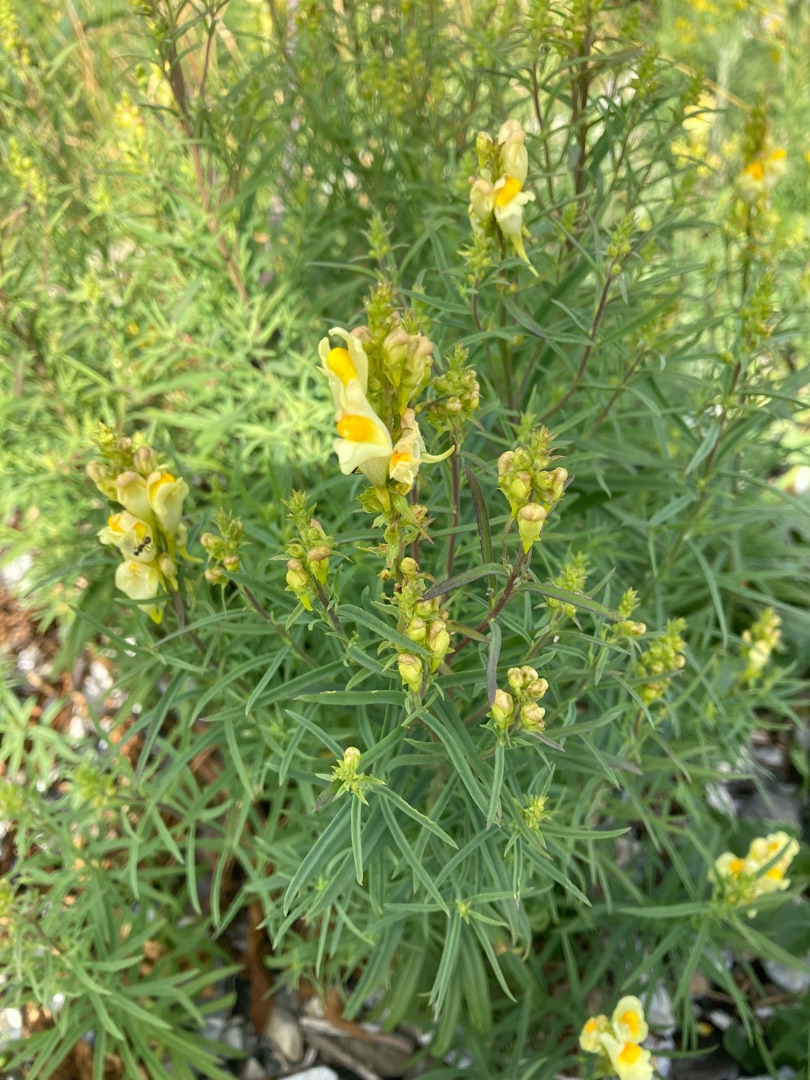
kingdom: Plantae
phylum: Tracheophyta
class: Magnoliopsida
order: Lamiales
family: Plantaginaceae
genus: Linaria
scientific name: Linaria vulgaris
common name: Almindelig torskemund
